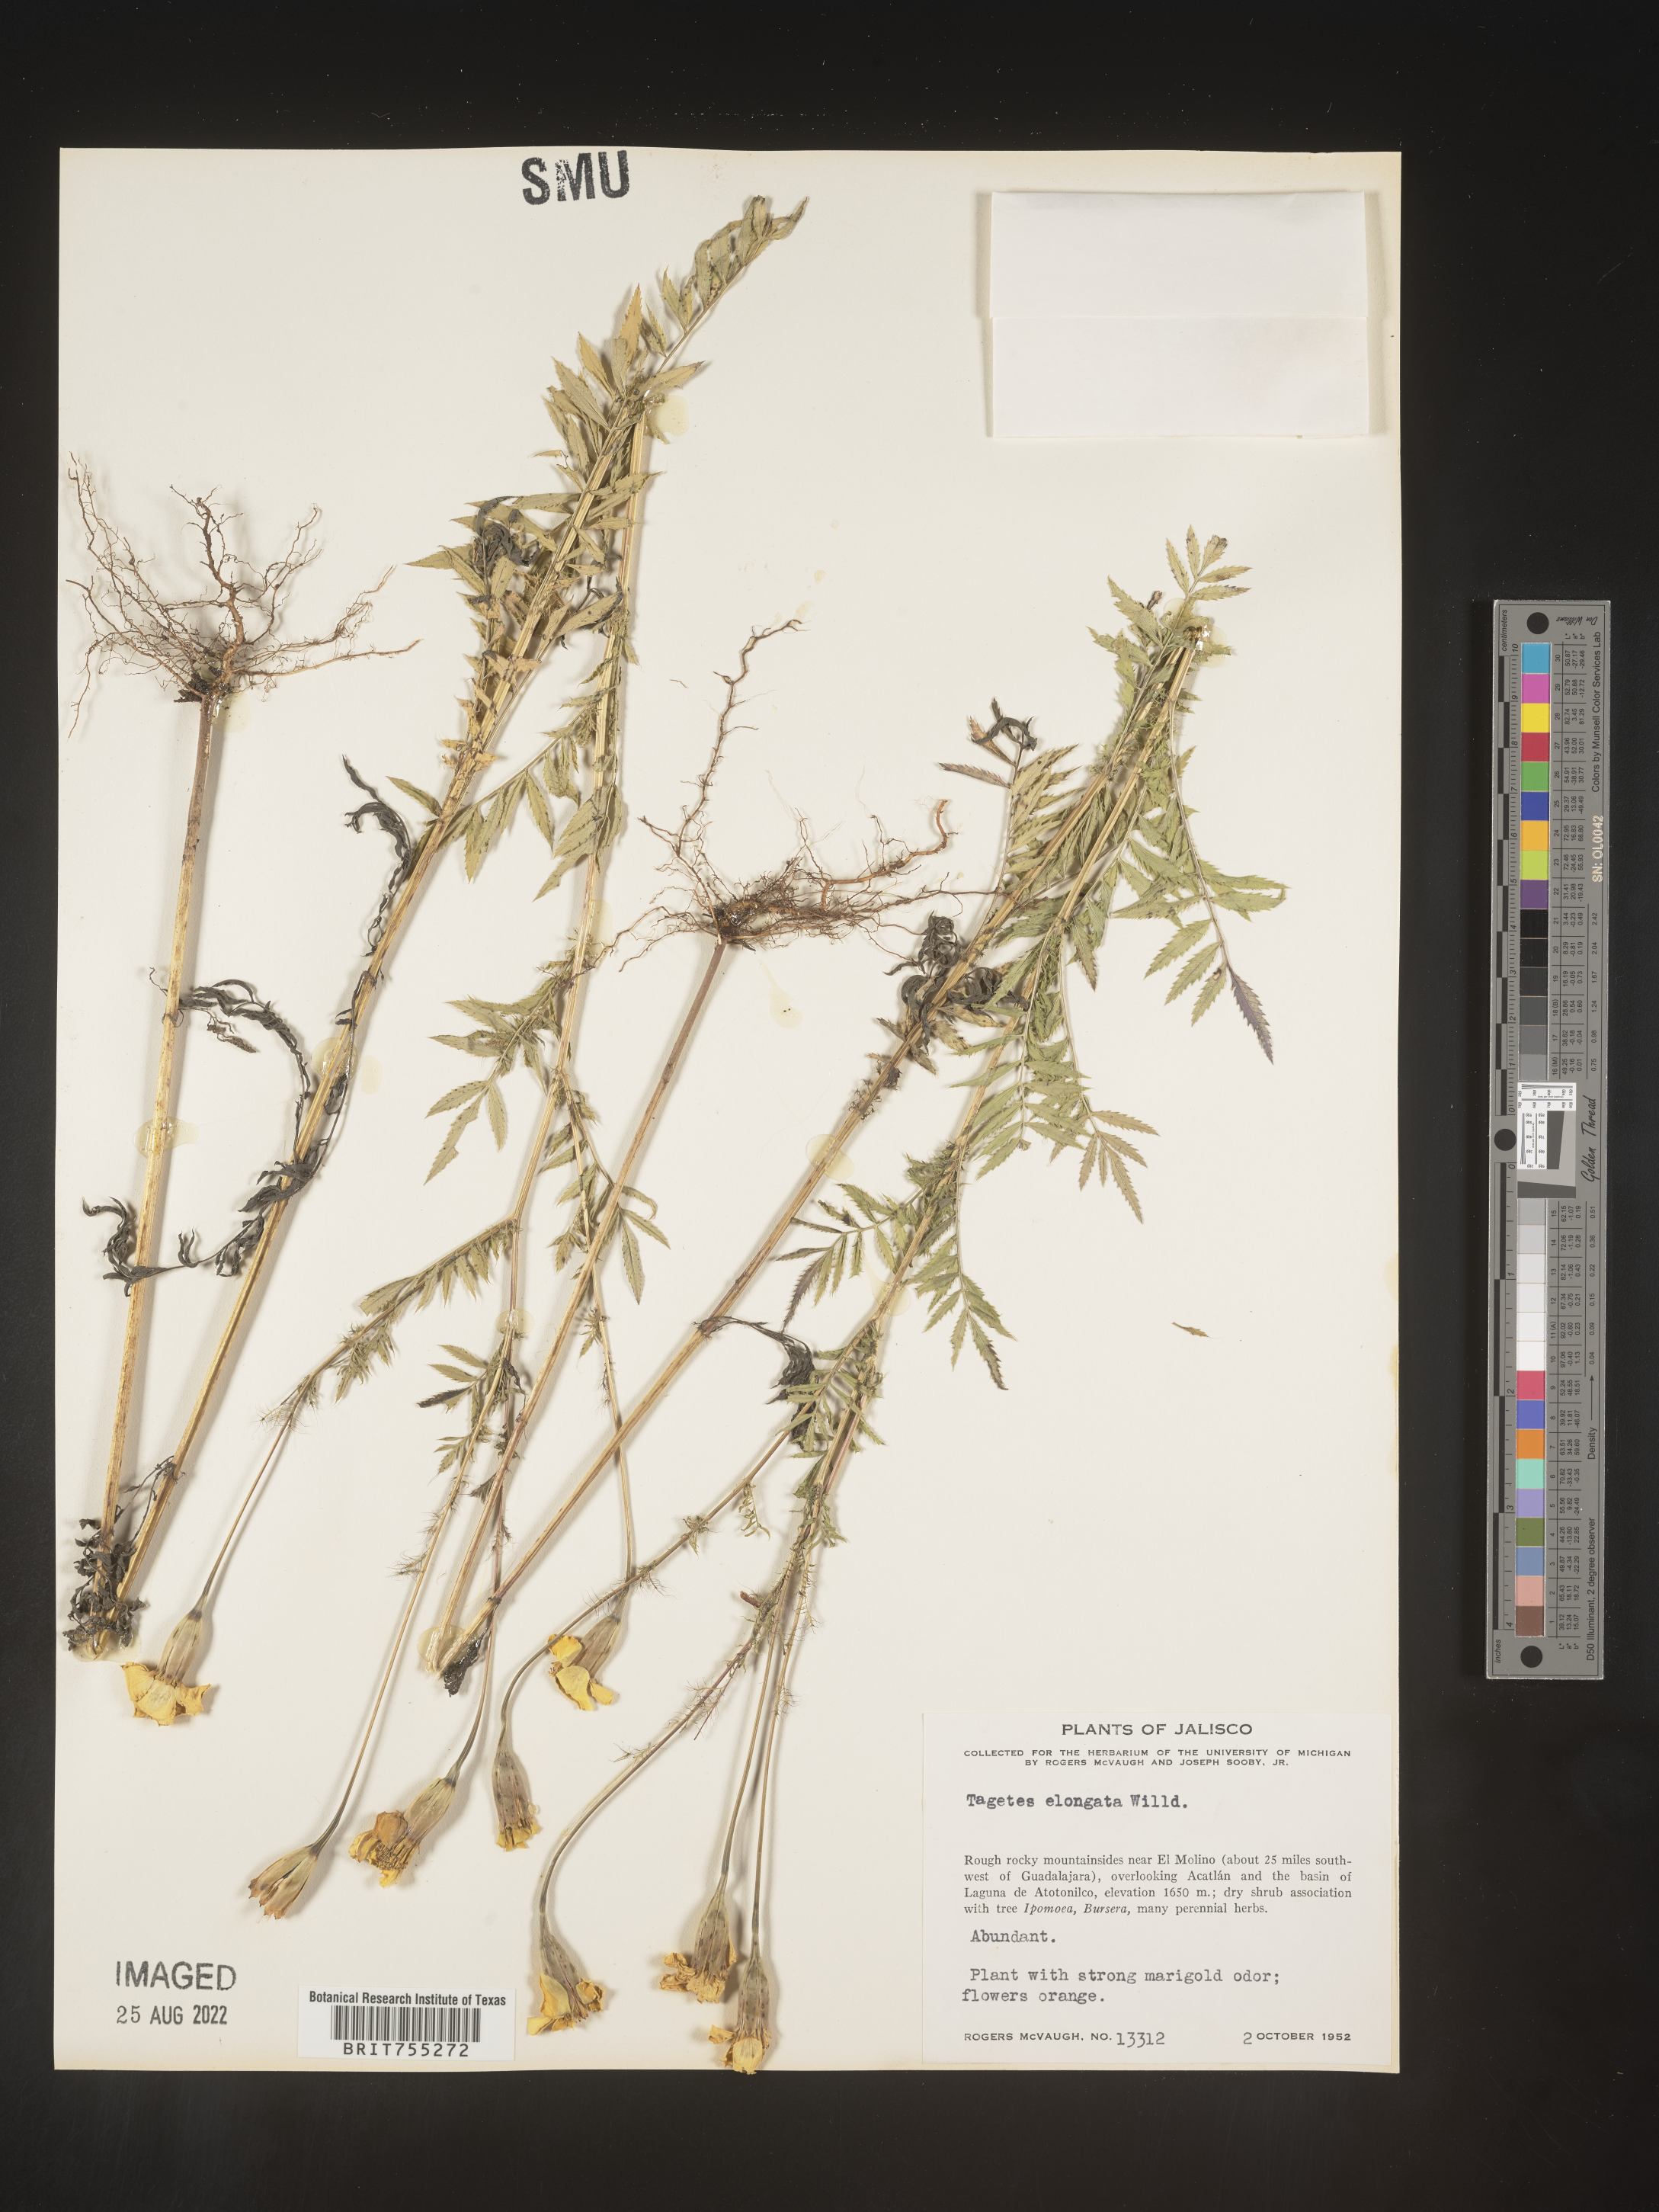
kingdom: Plantae
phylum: Tracheophyta
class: Magnoliopsida
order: Asterales
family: Asteraceae
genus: Tagetes
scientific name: Tagetes
